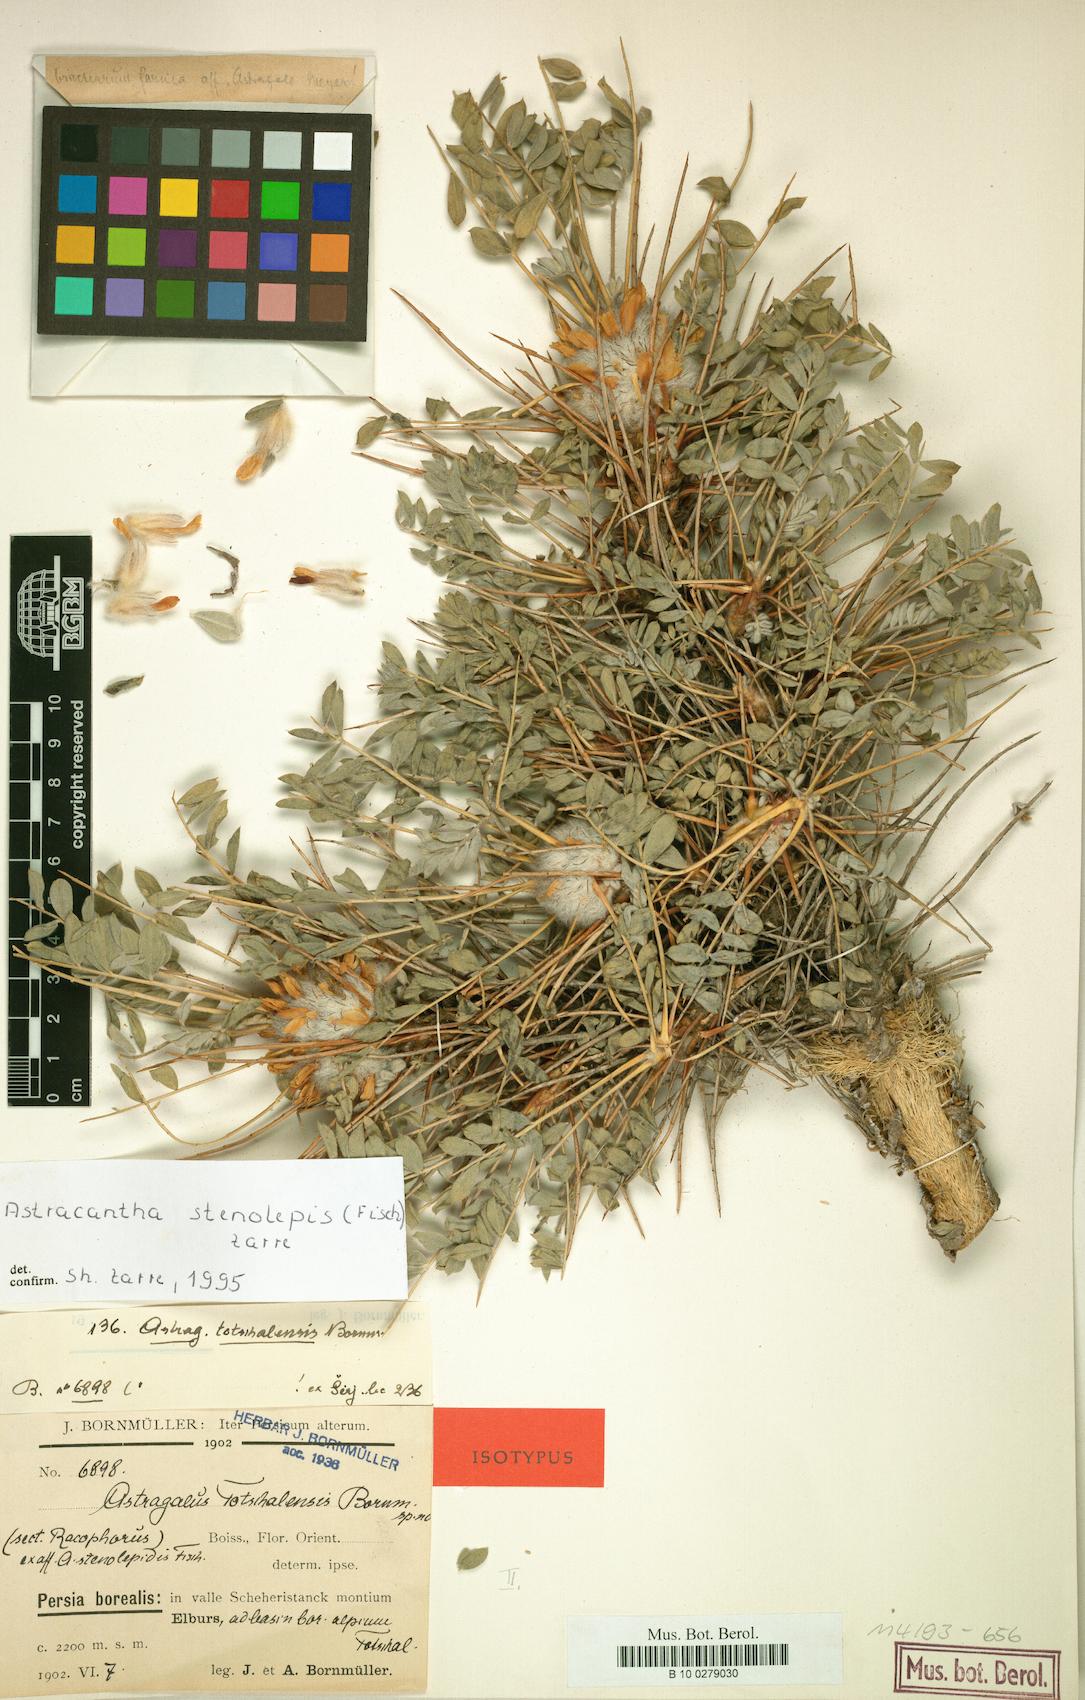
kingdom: Chromista
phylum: Cercozoa
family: Astracanthidae
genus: Astracantha
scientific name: Astracantha
